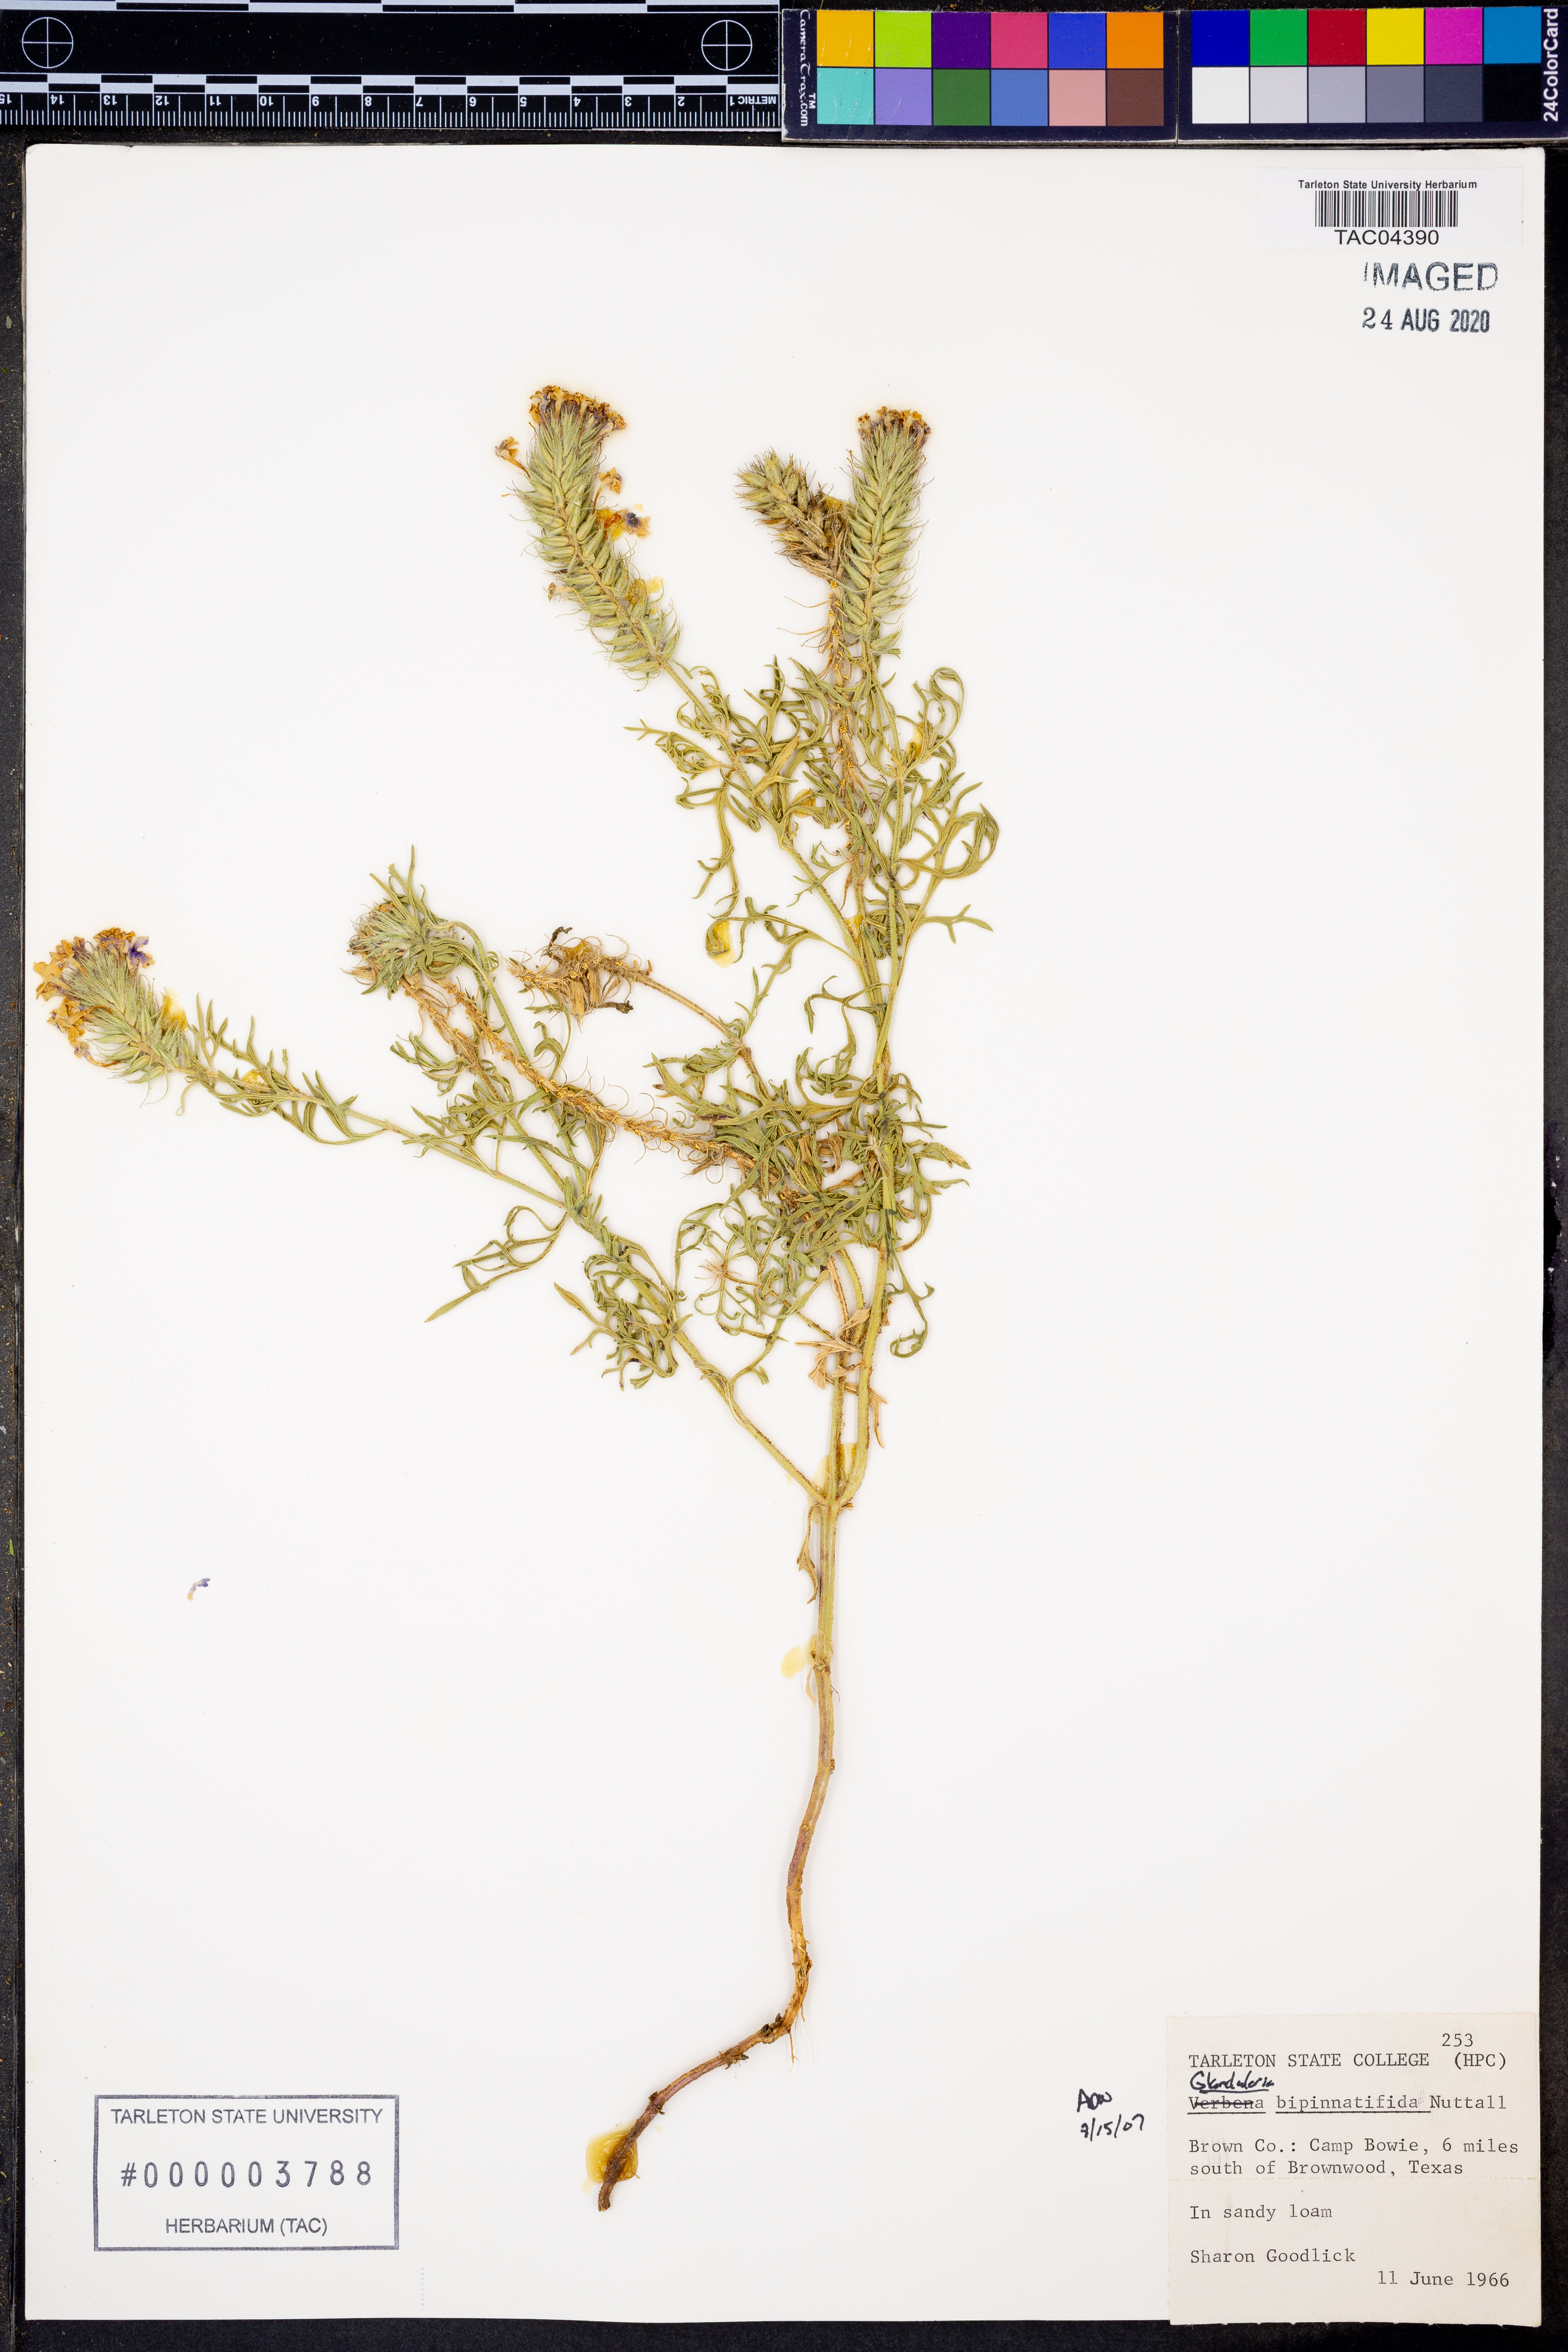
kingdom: Plantae
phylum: Tracheophyta
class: Magnoliopsida
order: Lamiales
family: Verbenaceae
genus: Verbena
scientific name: Verbena bipinnatifida
